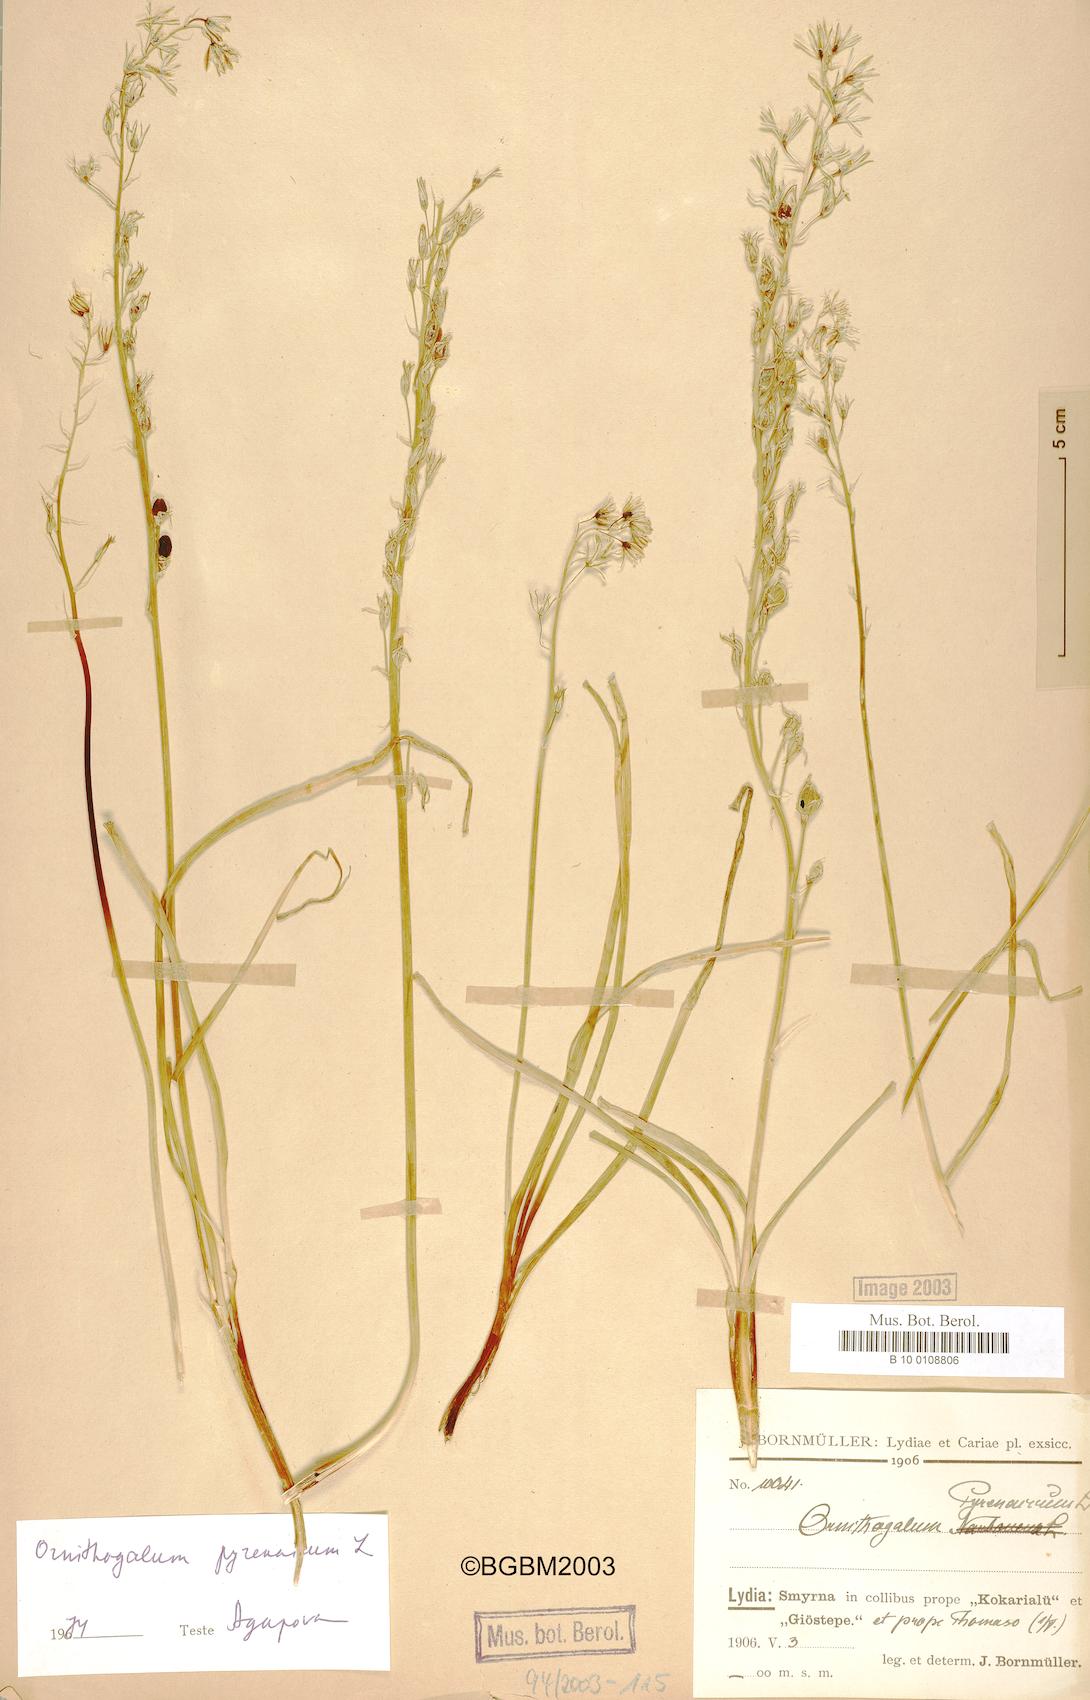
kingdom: Plantae
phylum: Tracheophyta
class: Liliopsida
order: Asparagales
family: Asparagaceae
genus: Ornithogalum
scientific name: Ornithogalum pyrenaicum
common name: Spiked star-of-bethlehem
